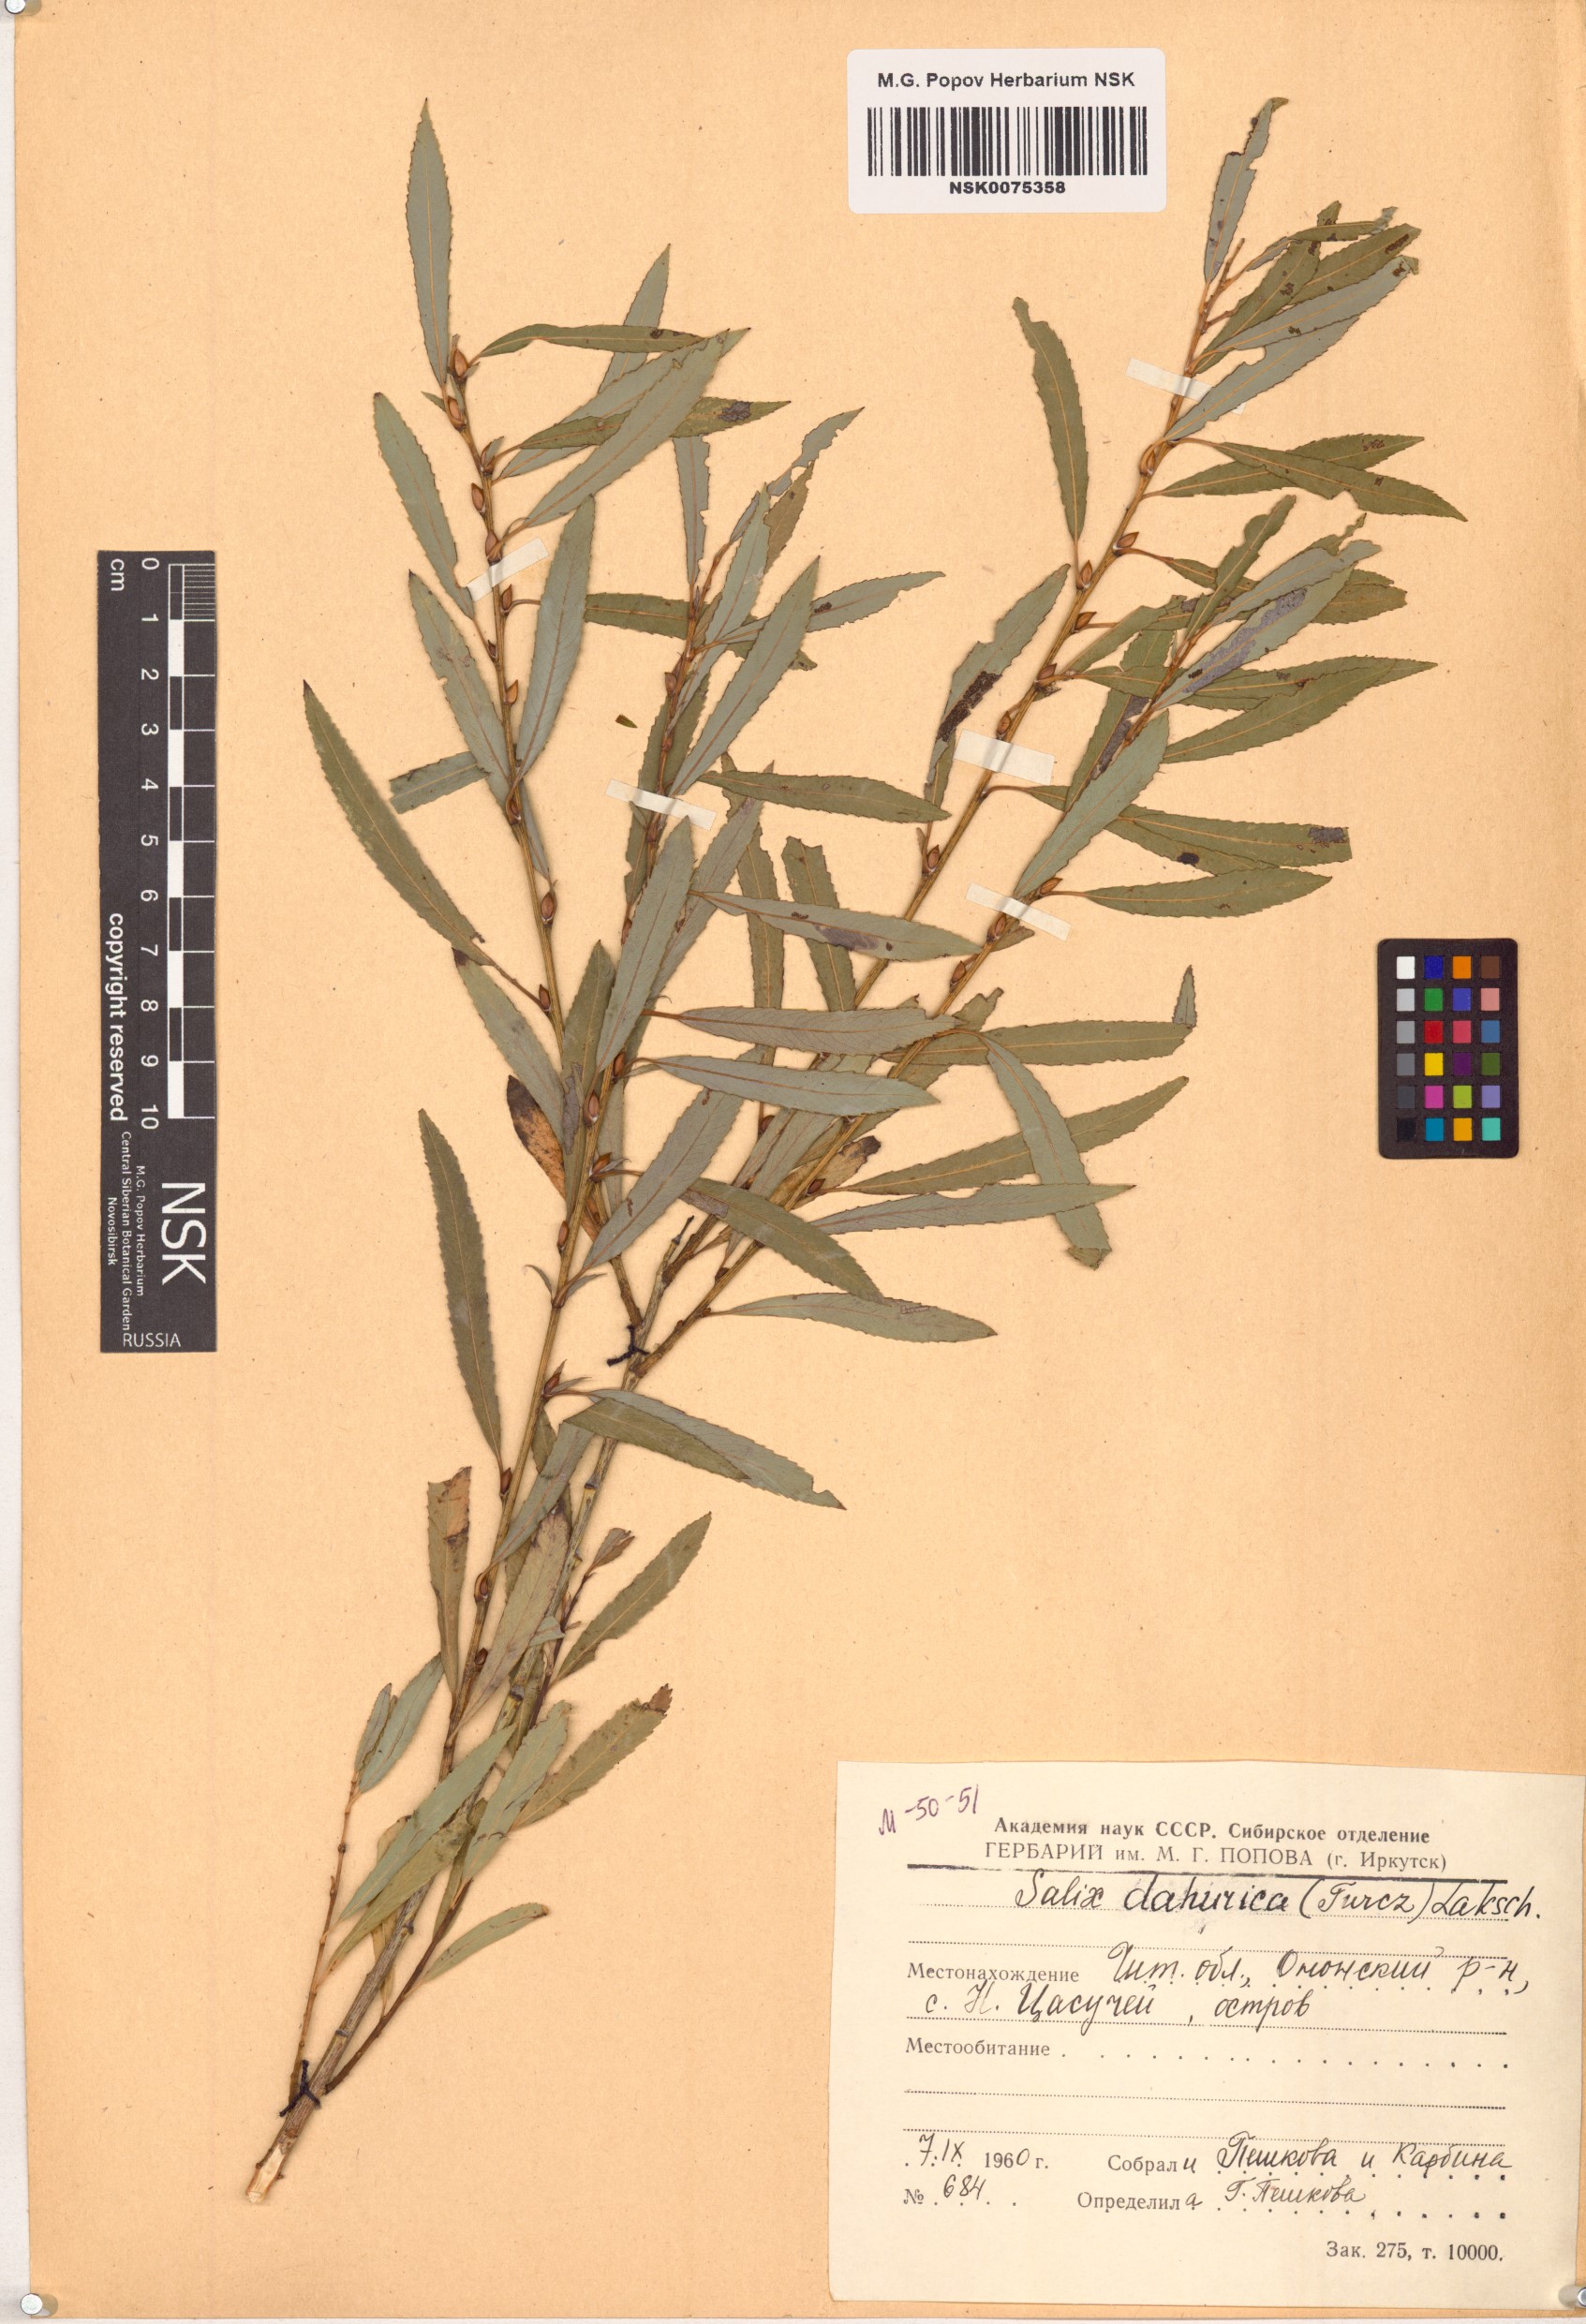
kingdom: Plantae
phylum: Tracheophyta
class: Magnoliopsida
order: Malpighiales
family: Salicaceae
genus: Salix
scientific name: Salix
